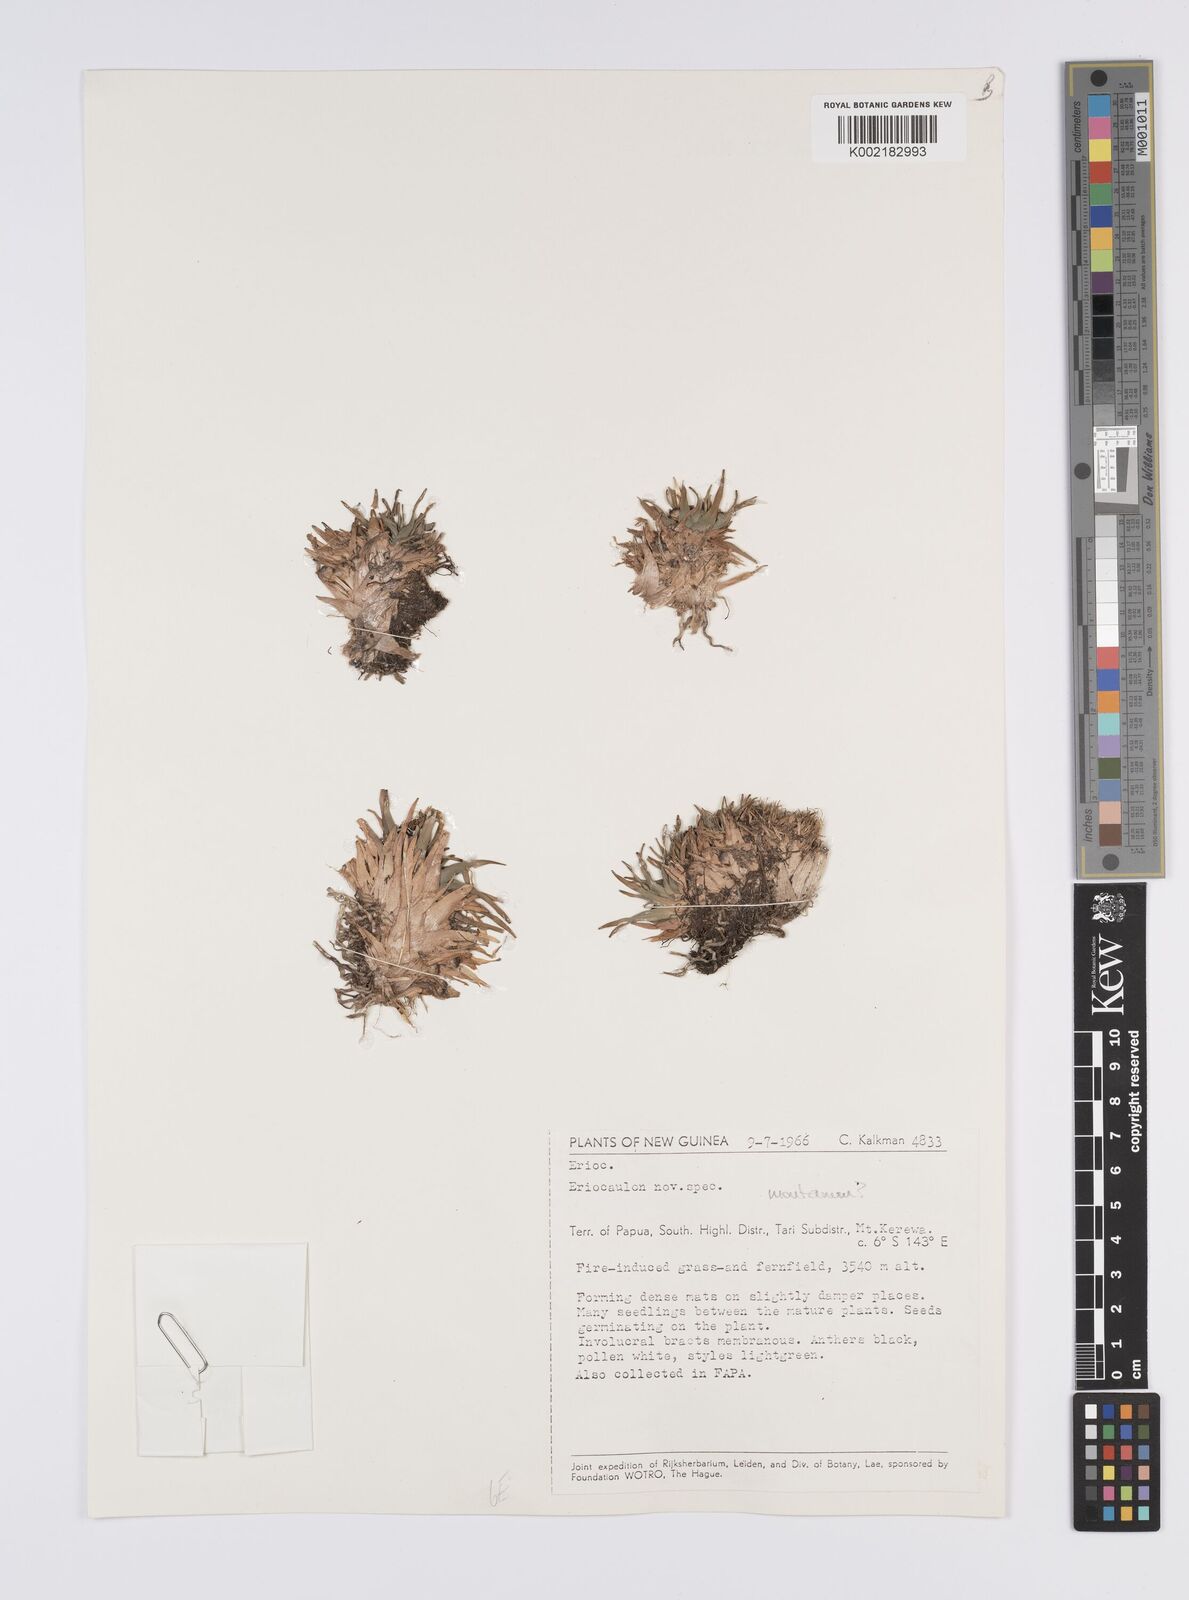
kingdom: Plantae
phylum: Tracheophyta
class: Liliopsida
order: Poales
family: Eriocaulaceae
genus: Eriocaulon
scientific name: Eriocaulon montanum
